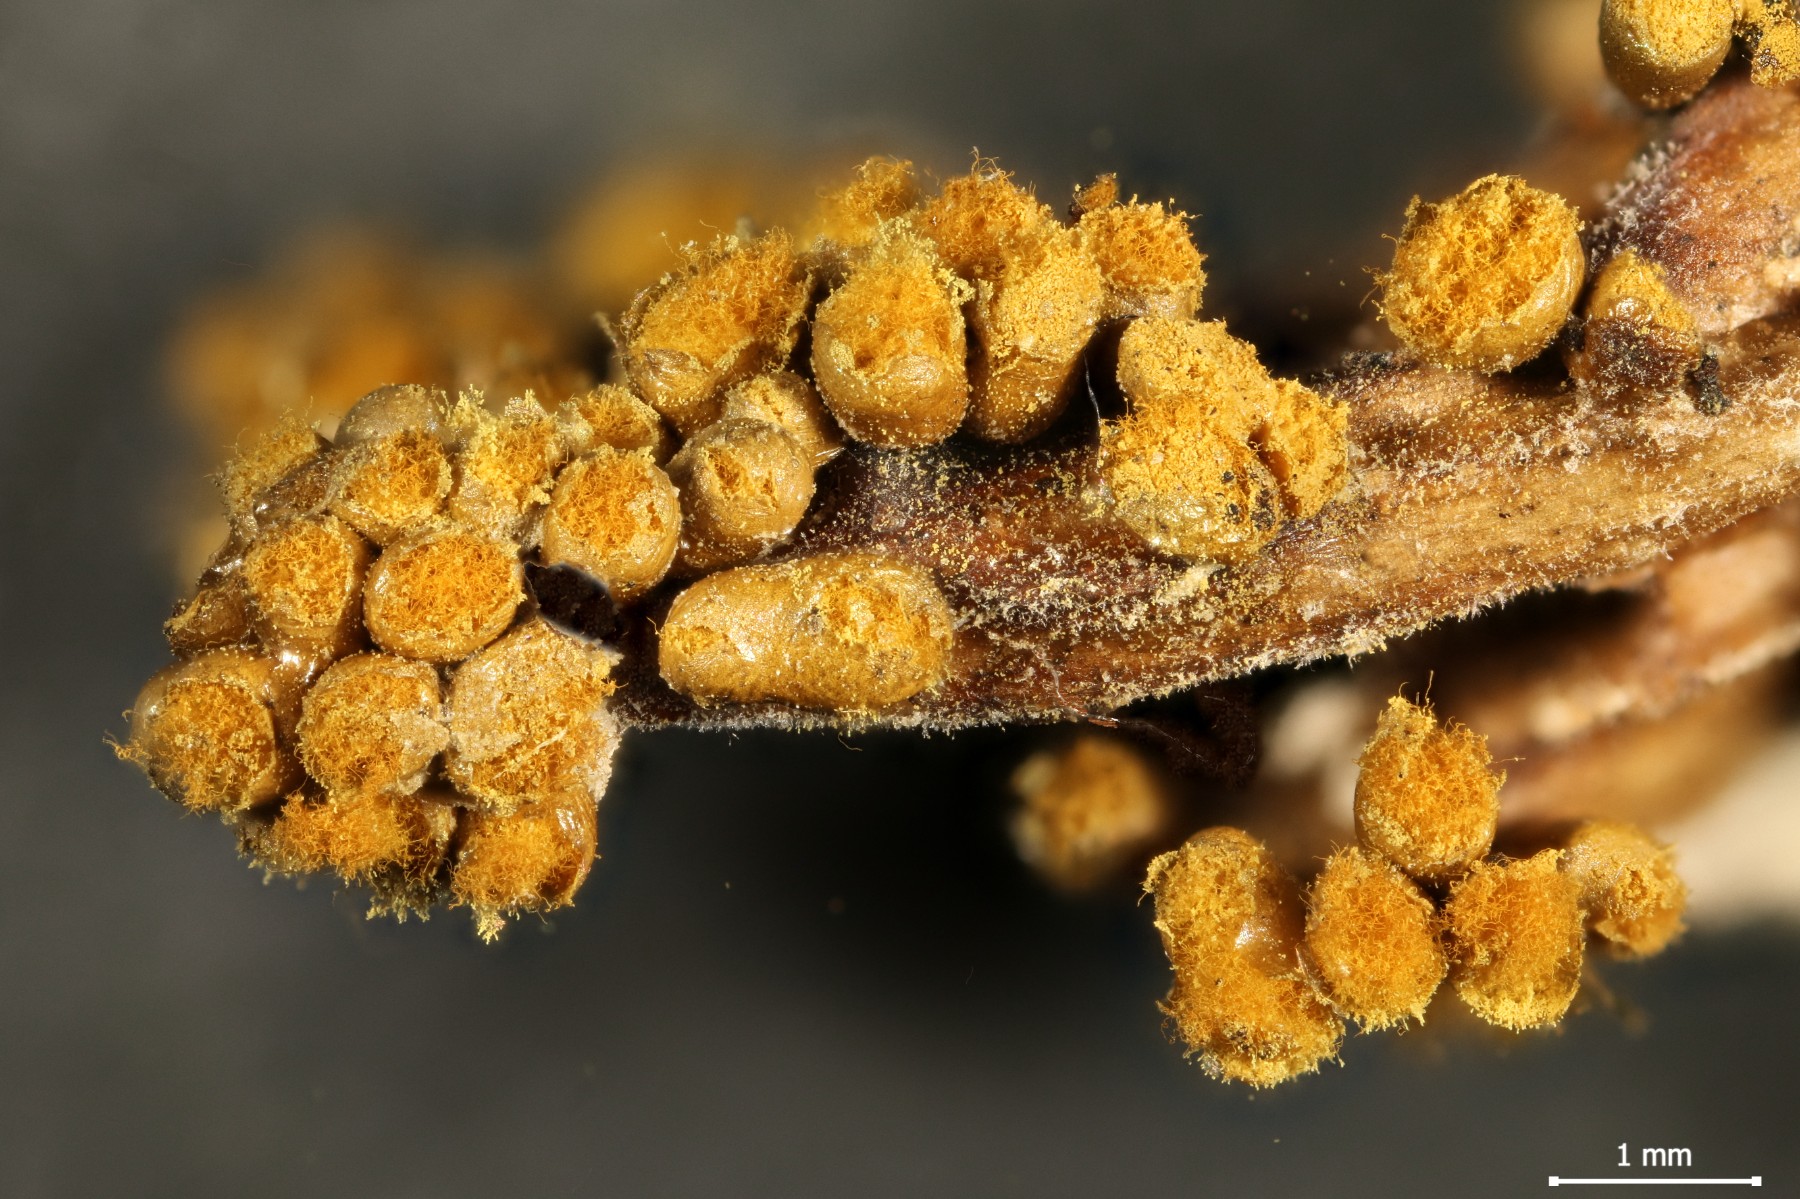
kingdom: Protozoa
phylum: Mycetozoa
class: Myxomycetes
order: Trichiales
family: Trichiaceae
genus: Trichia
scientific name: Trichia varia
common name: foranderlig hårbold
